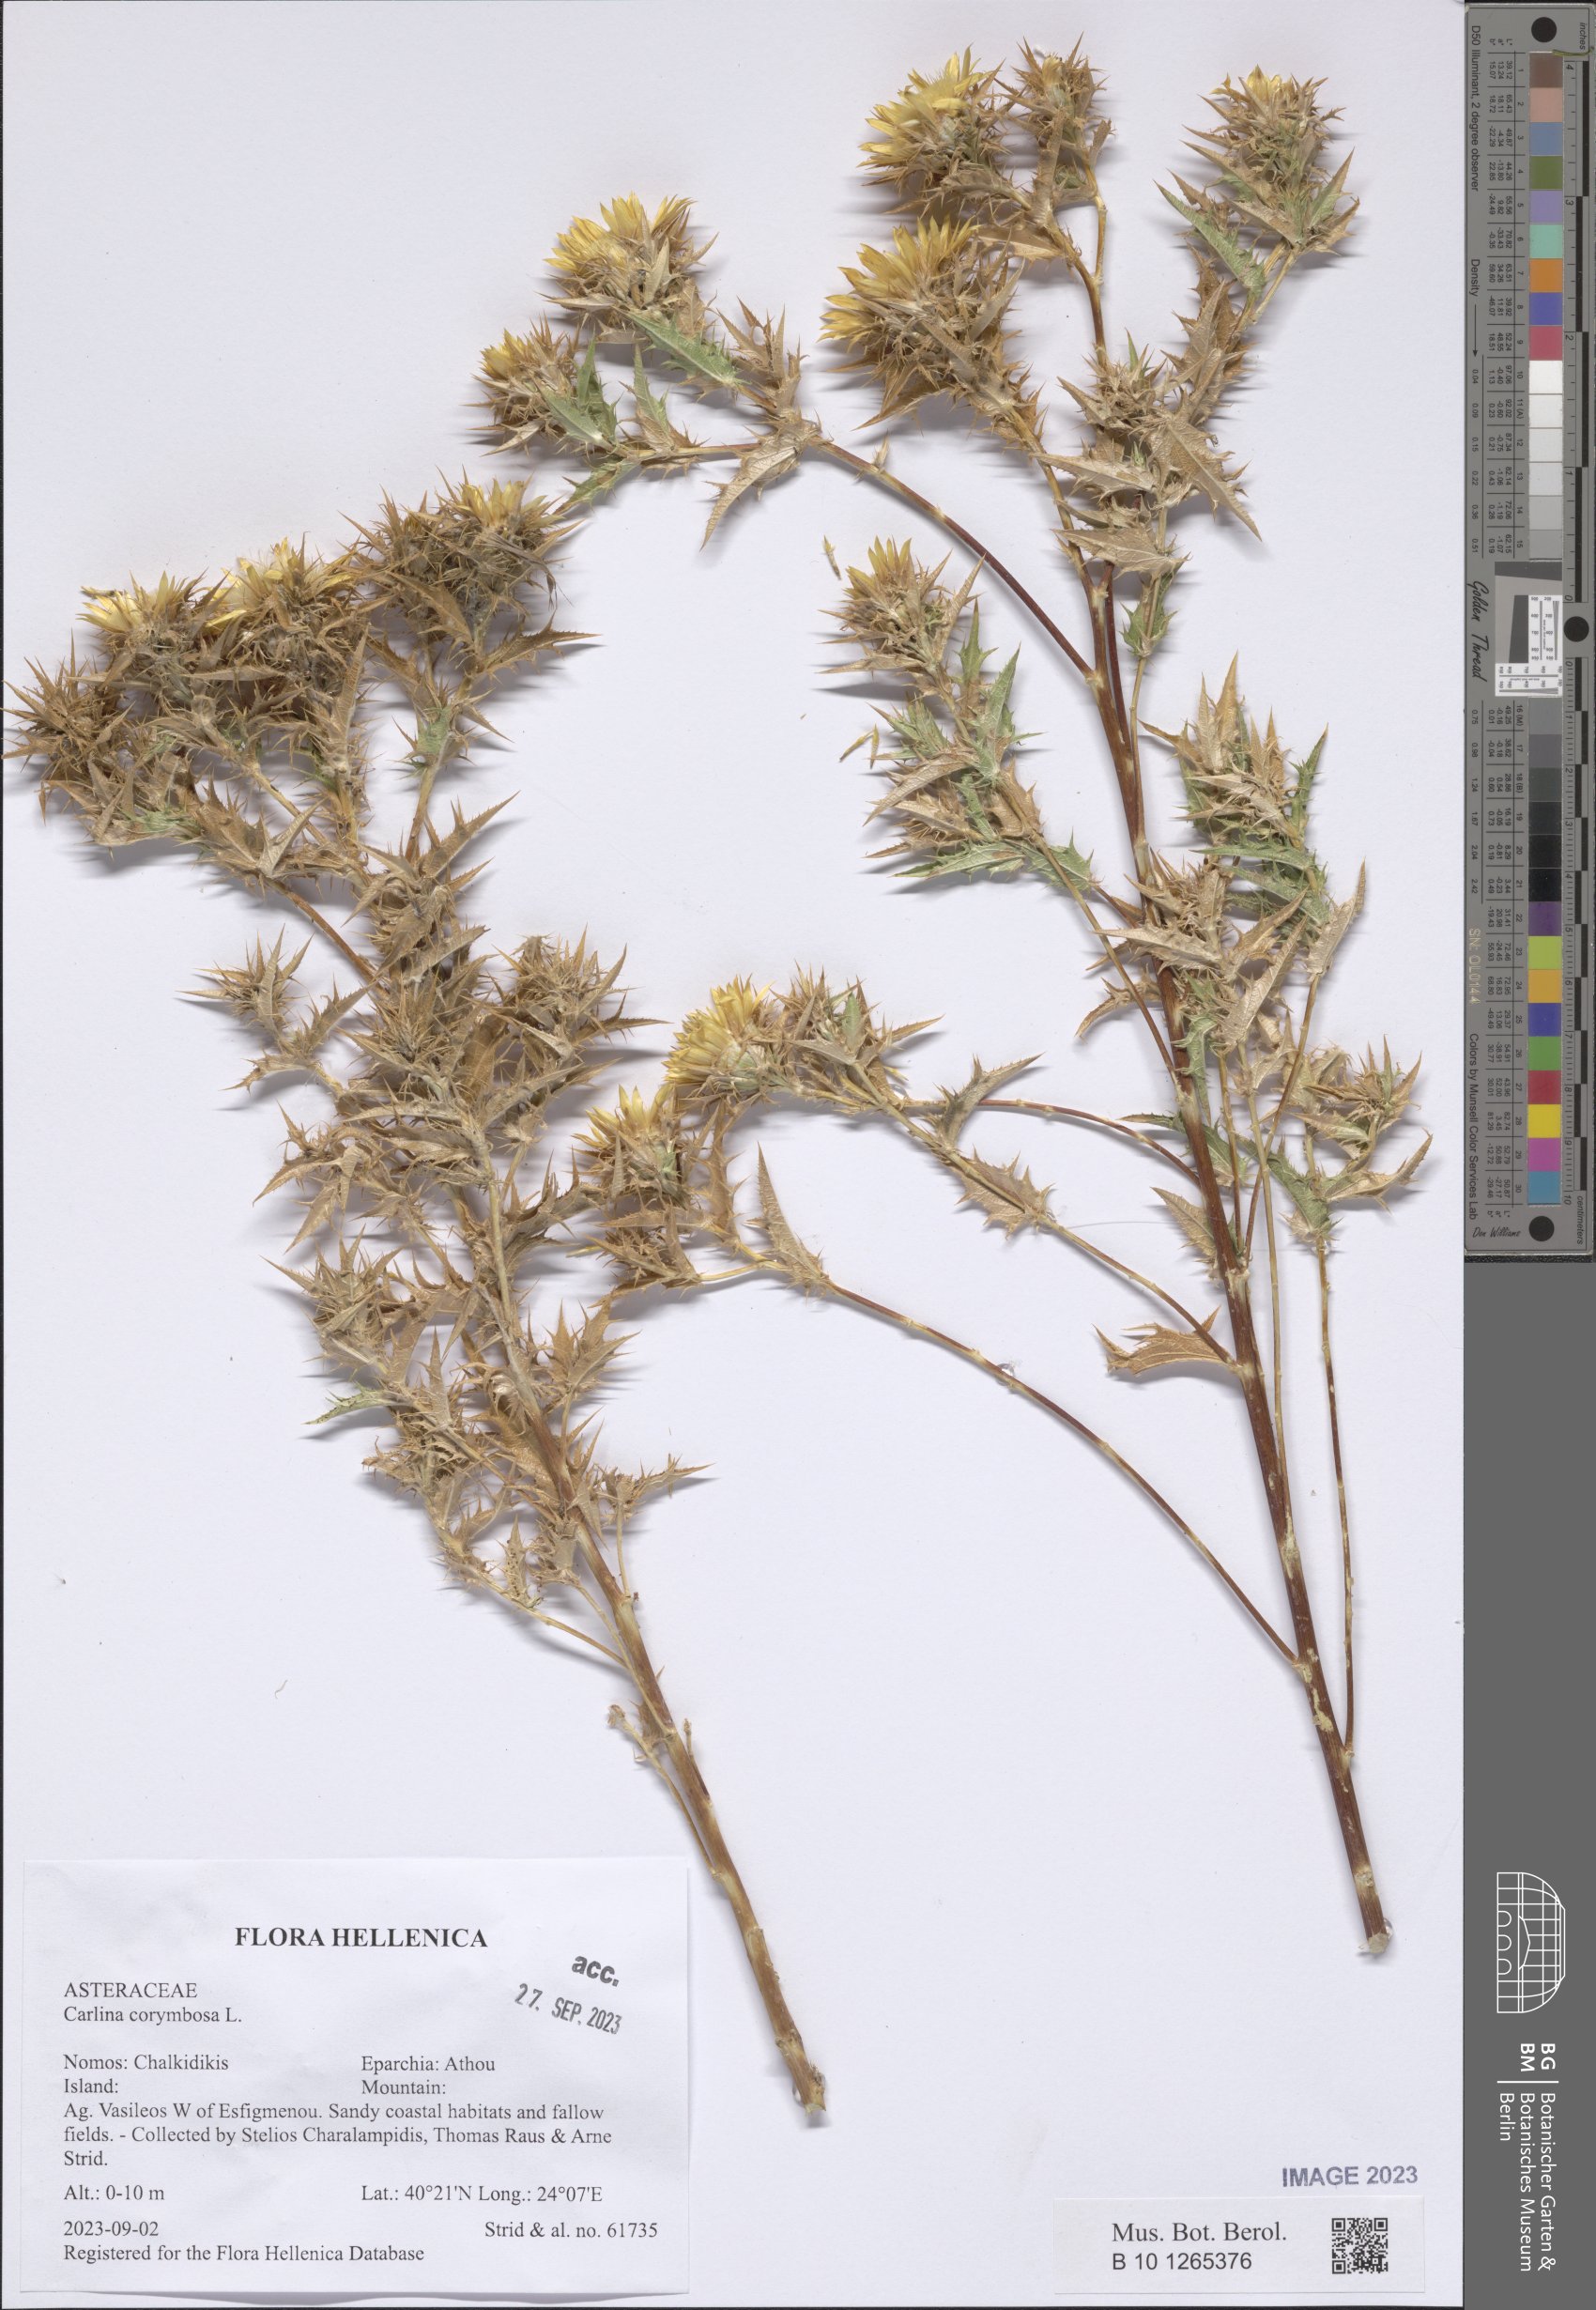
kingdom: Plantae
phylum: Tracheophyta
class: Magnoliopsida
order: Asterales
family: Asteraceae
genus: Carlina
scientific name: Carlina corymbosa
